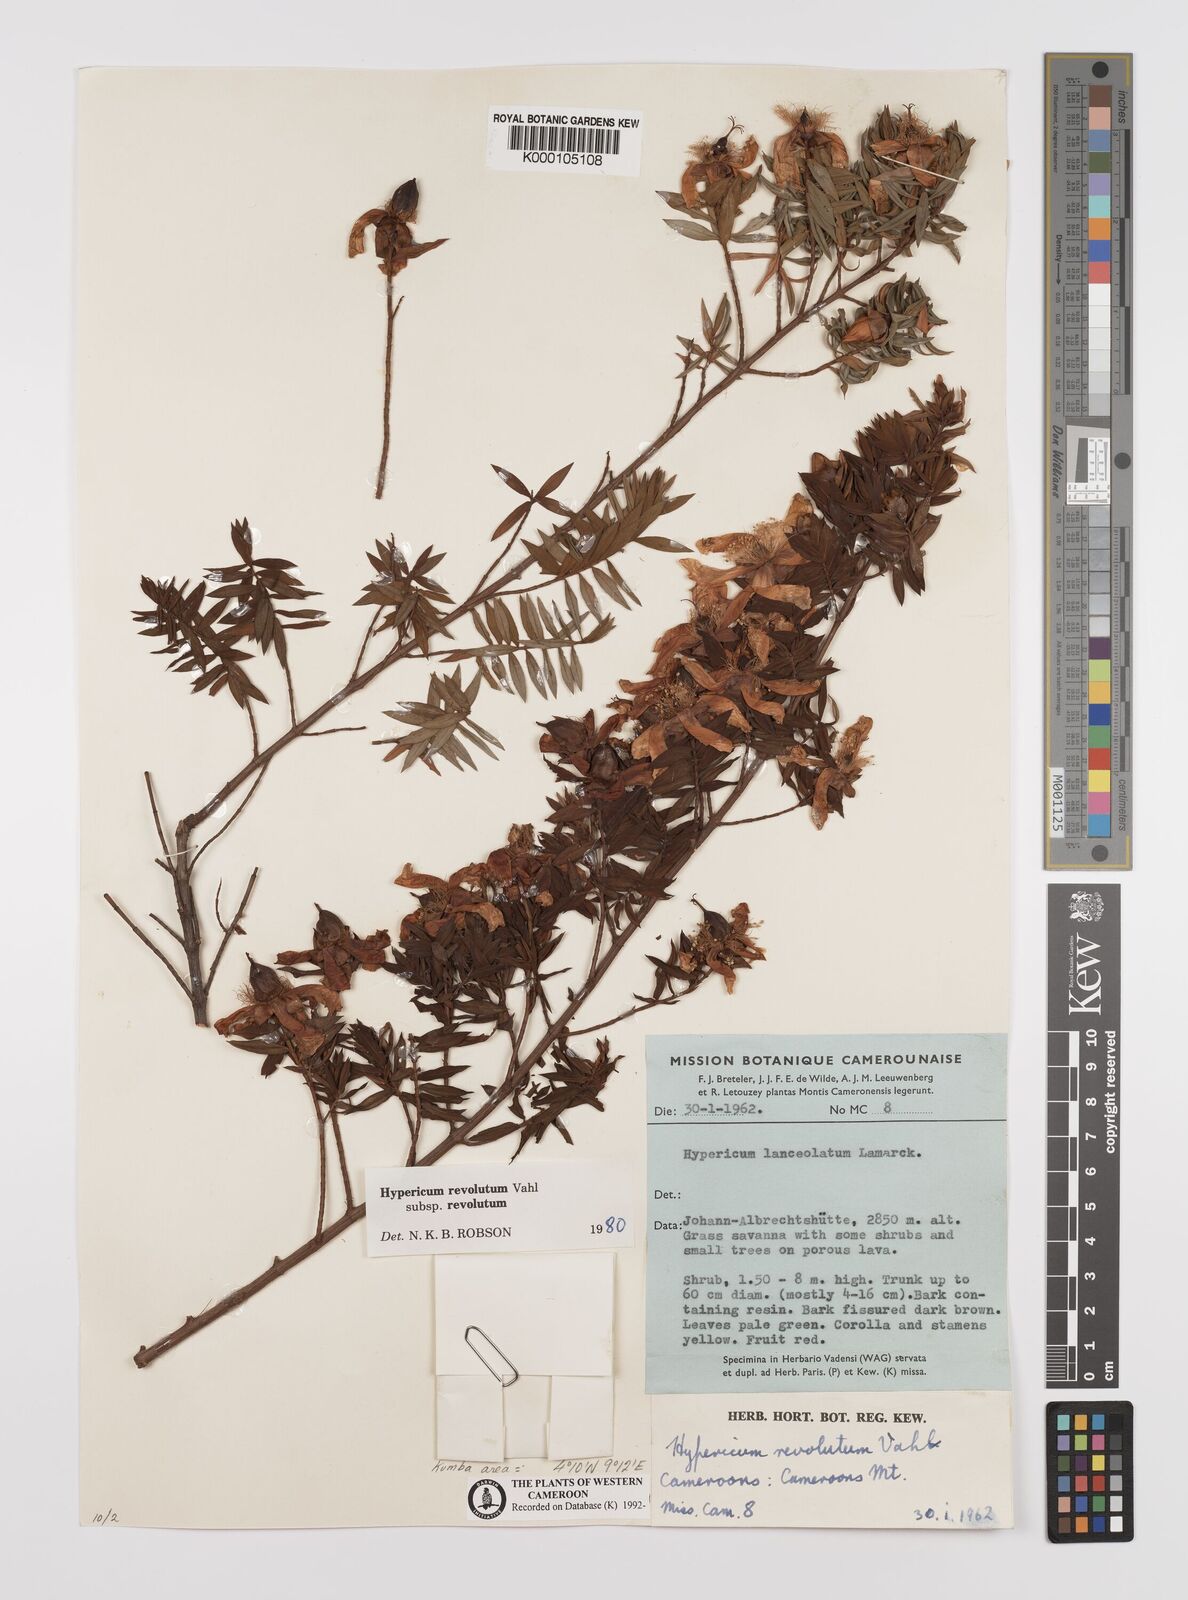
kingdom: Plantae
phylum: Tracheophyta
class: Magnoliopsida
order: Malpighiales
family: Hypericaceae
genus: Hypericum
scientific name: Hypericum revolutum
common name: Curry bush
